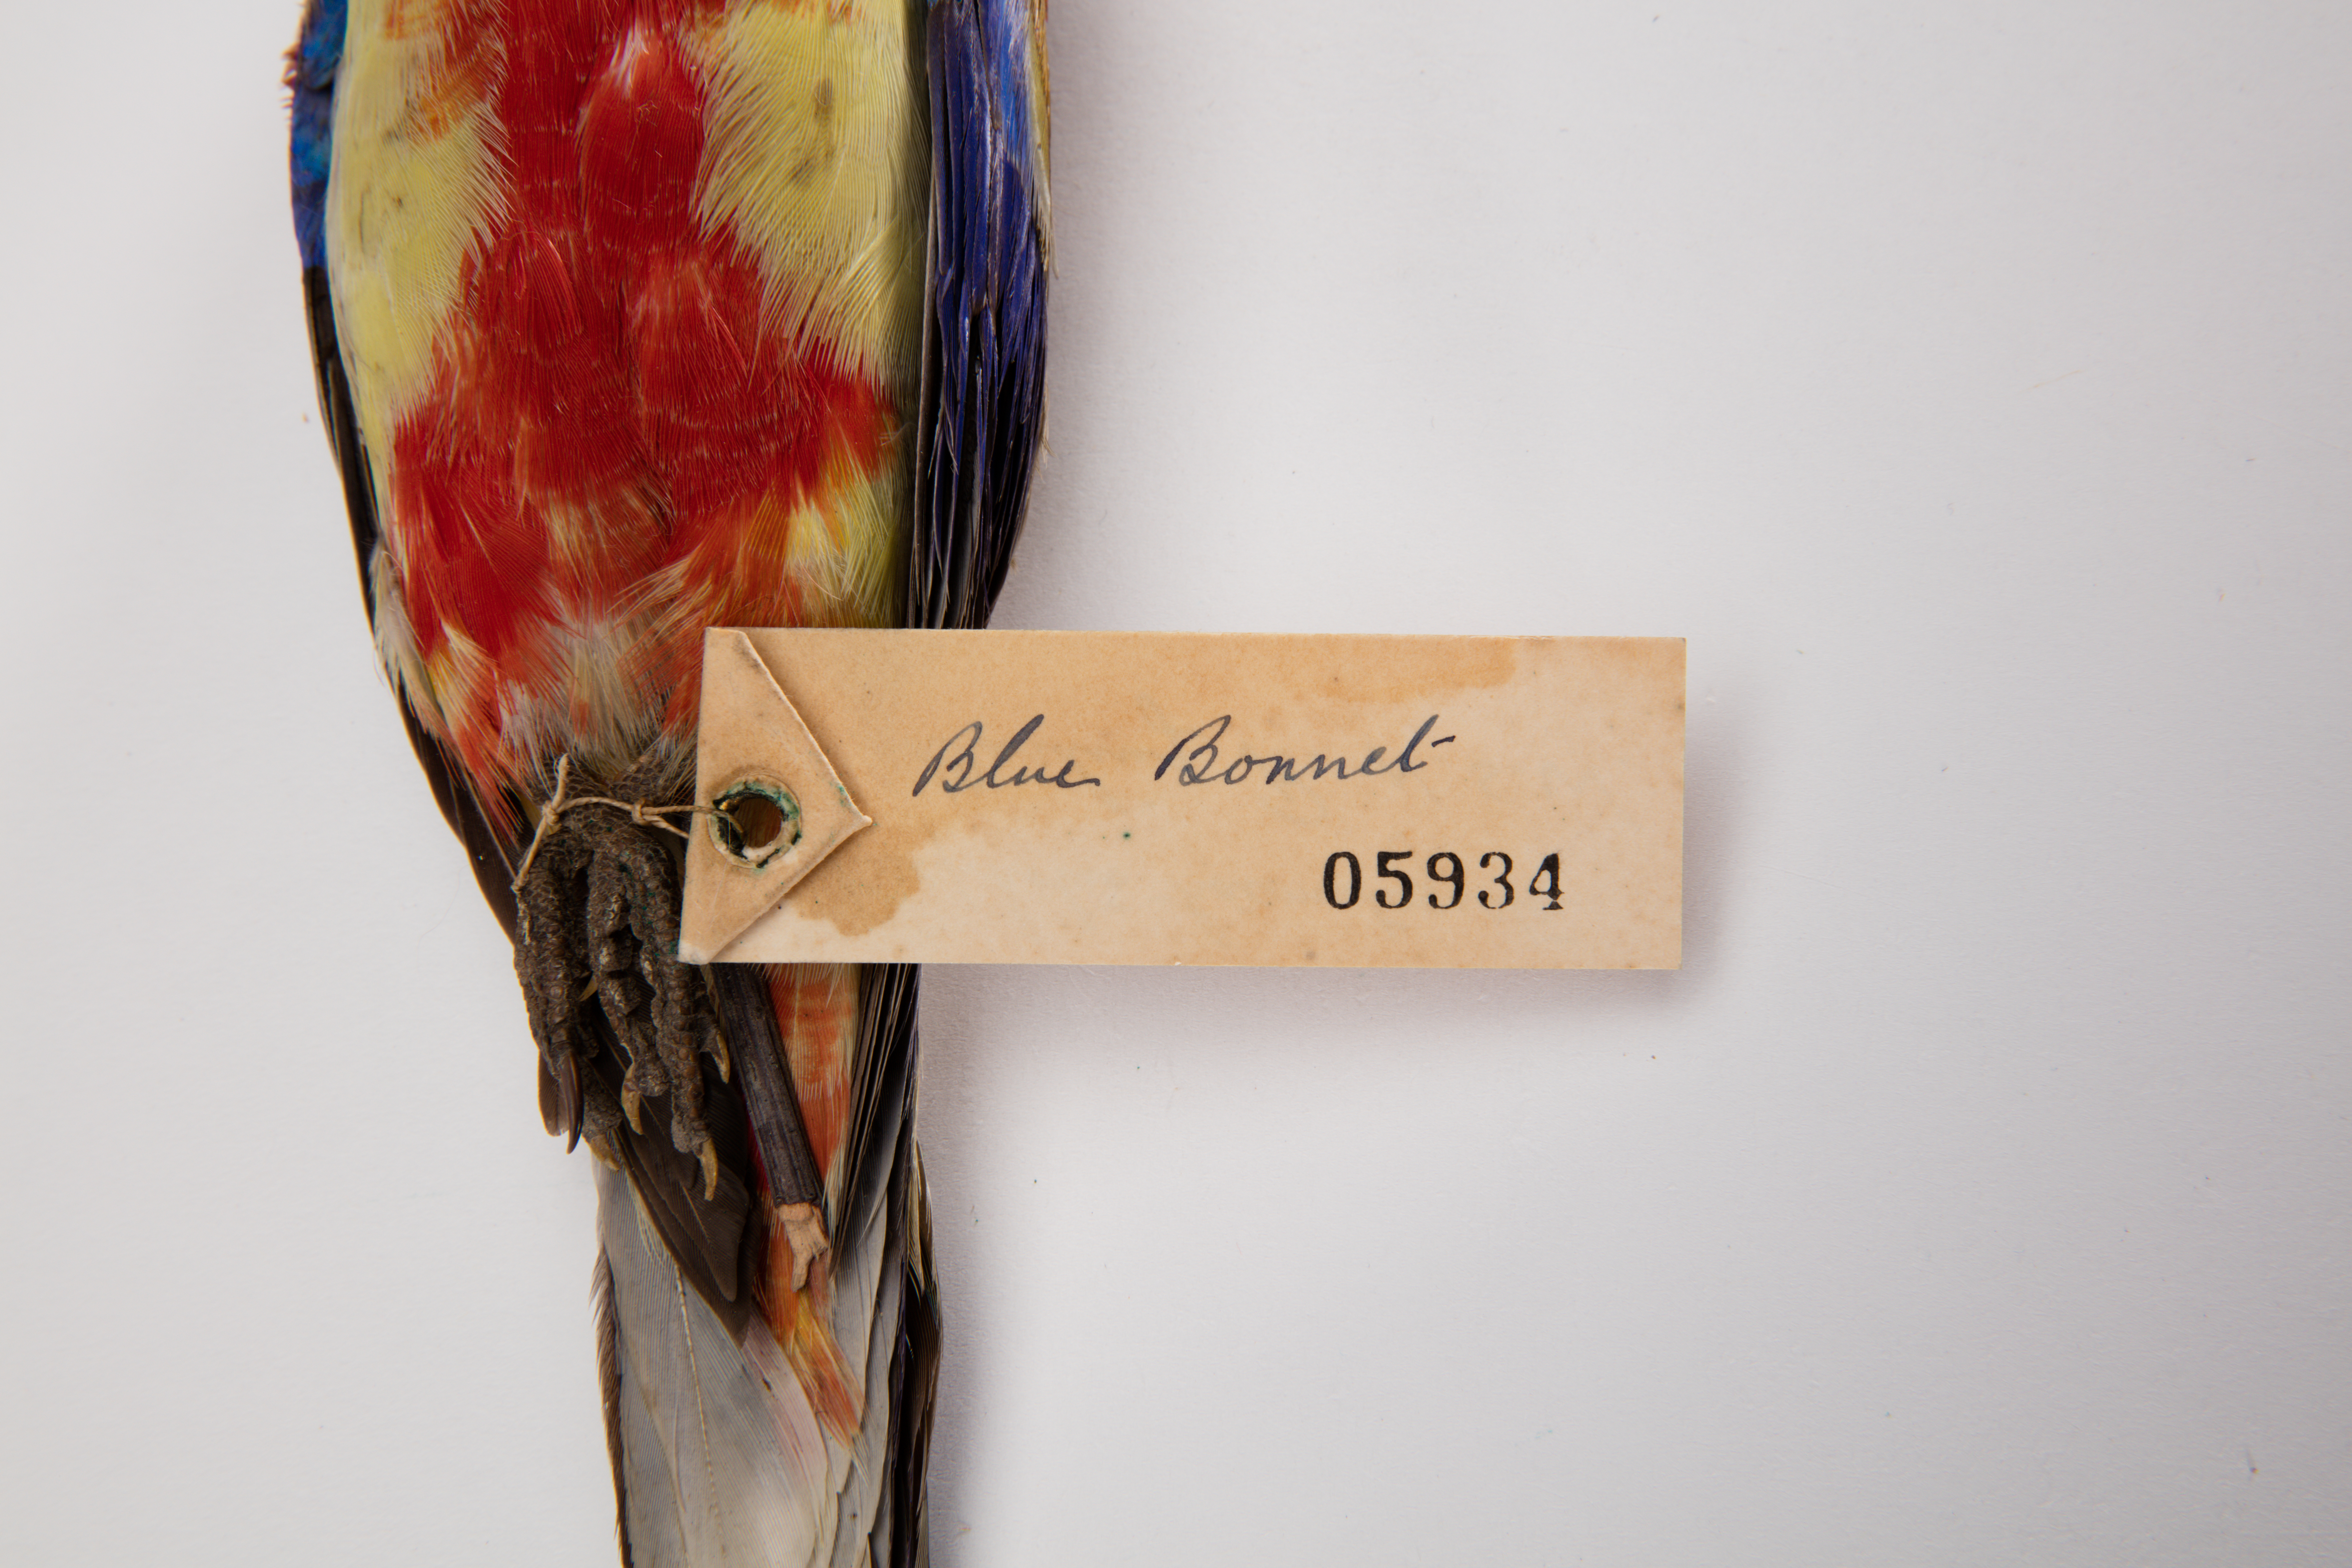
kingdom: Animalia
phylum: Chordata
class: Aves
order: Psittaciformes
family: Psittacidae
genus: Psephotus
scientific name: Psephotus
